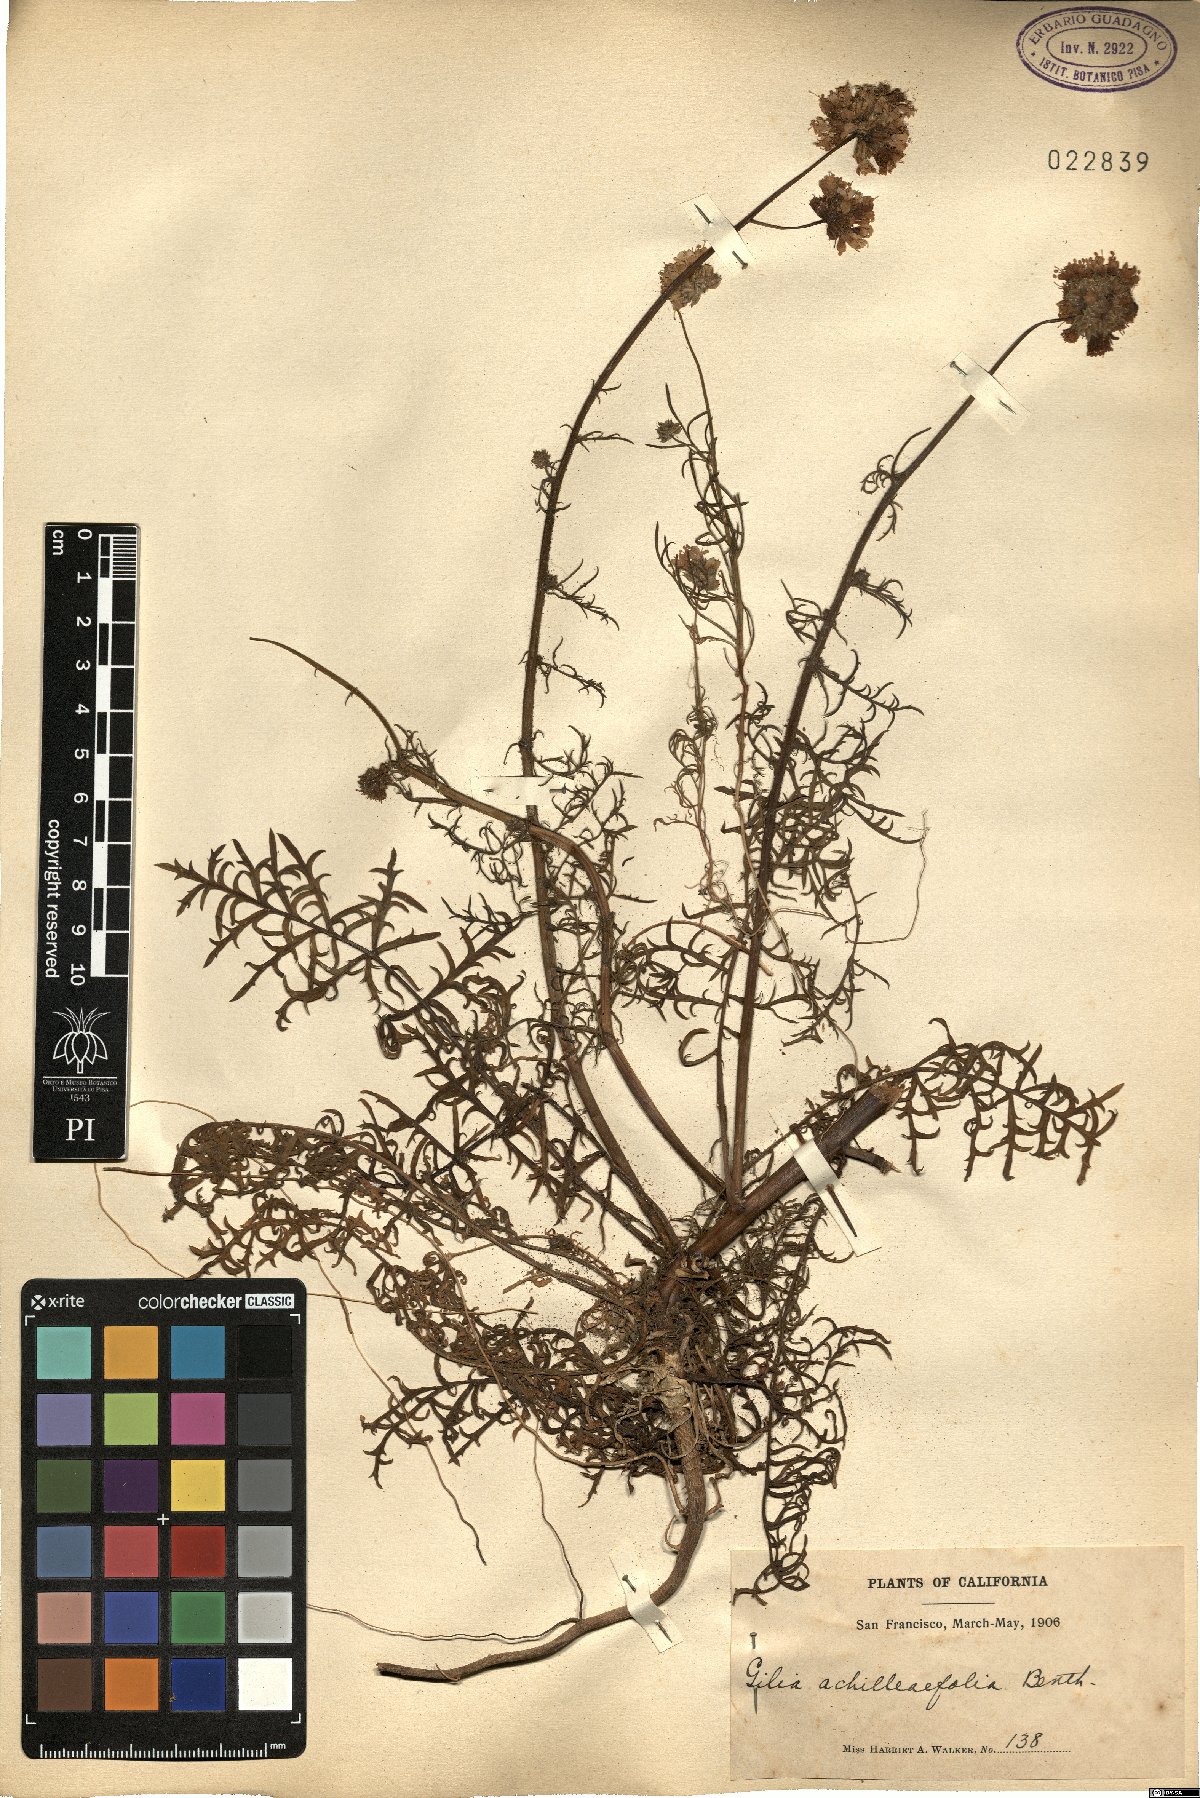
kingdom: Plantae
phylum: Tracheophyta
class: Magnoliopsida
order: Ericales
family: Polemoniaceae
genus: Gilia
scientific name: Gilia achilleifolia
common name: California gily-flower
